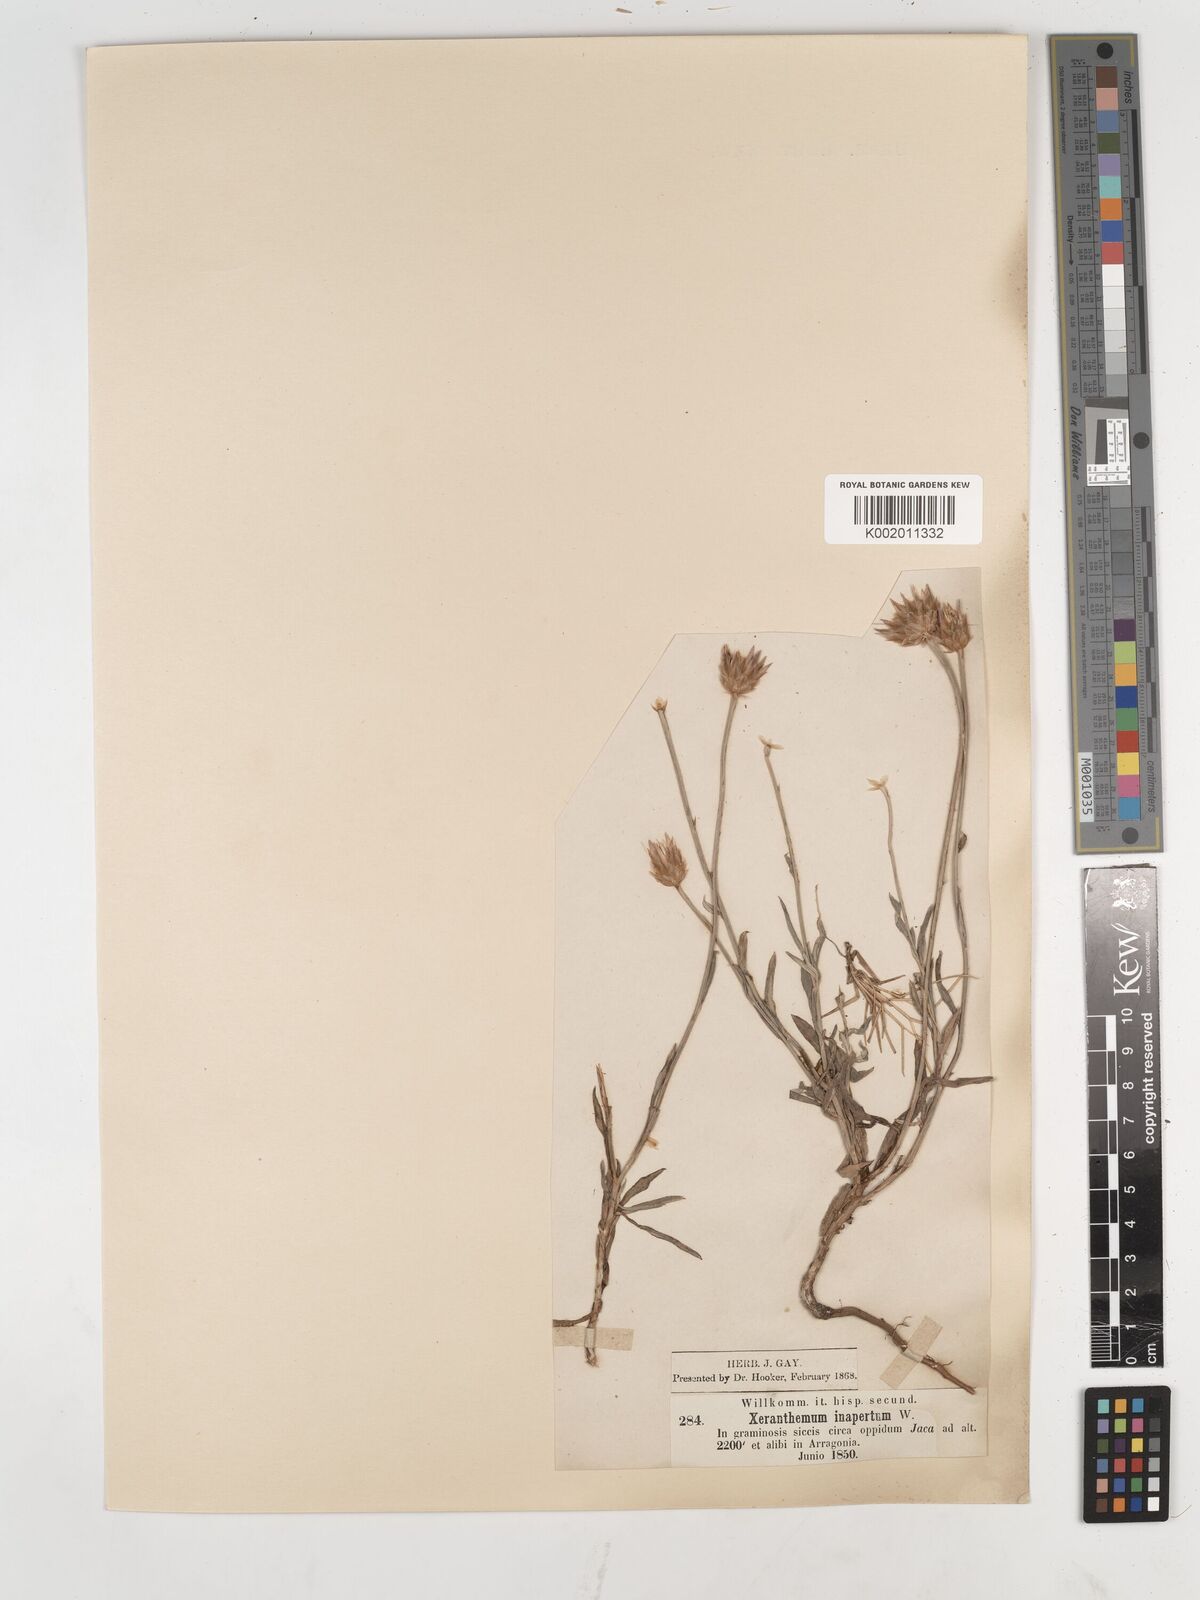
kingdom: Plantae
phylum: Tracheophyta
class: Magnoliopsida
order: Asterales
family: Asteraceae
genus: Xeranthemum
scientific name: Xeranthemum inapertum
